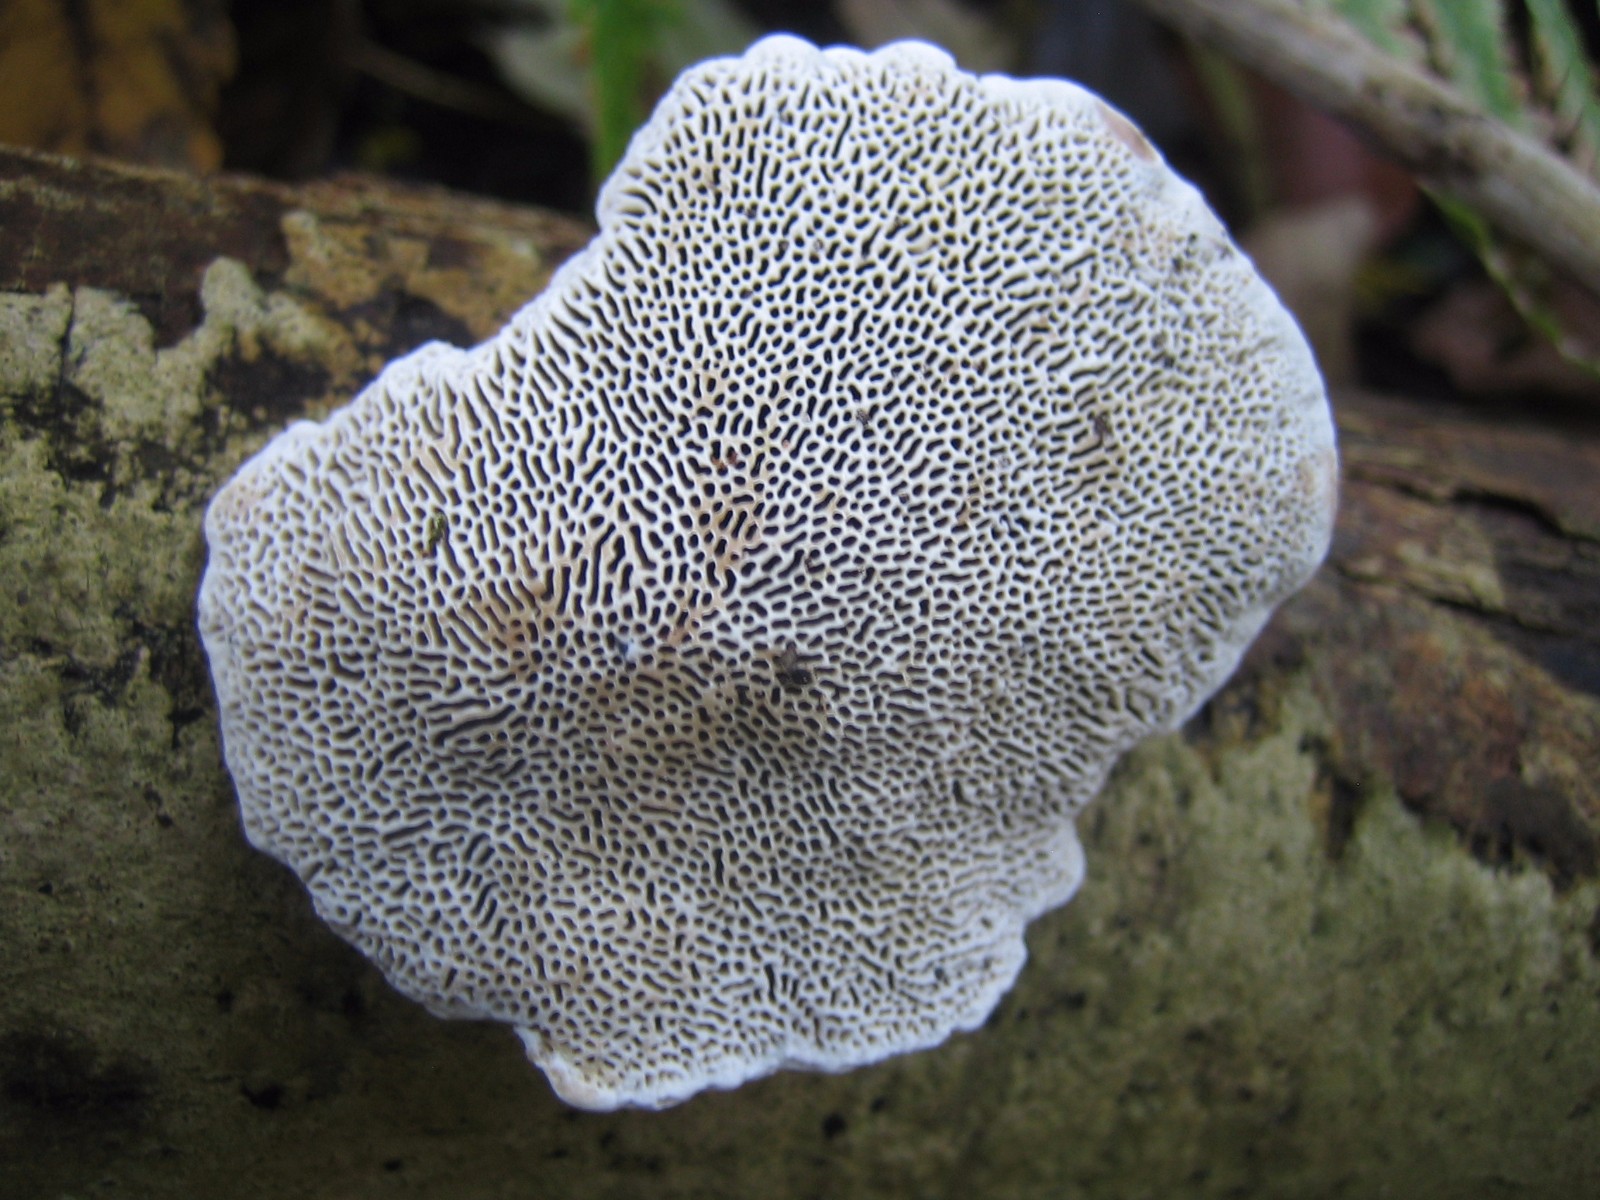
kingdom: Fungi
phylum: Basidiomycota
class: Agaricomycetes
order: Polyporales
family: Polyporaceae
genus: Daedaleopsis
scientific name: Daedaleopsis confragosa
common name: rødmende læderporesvamp
